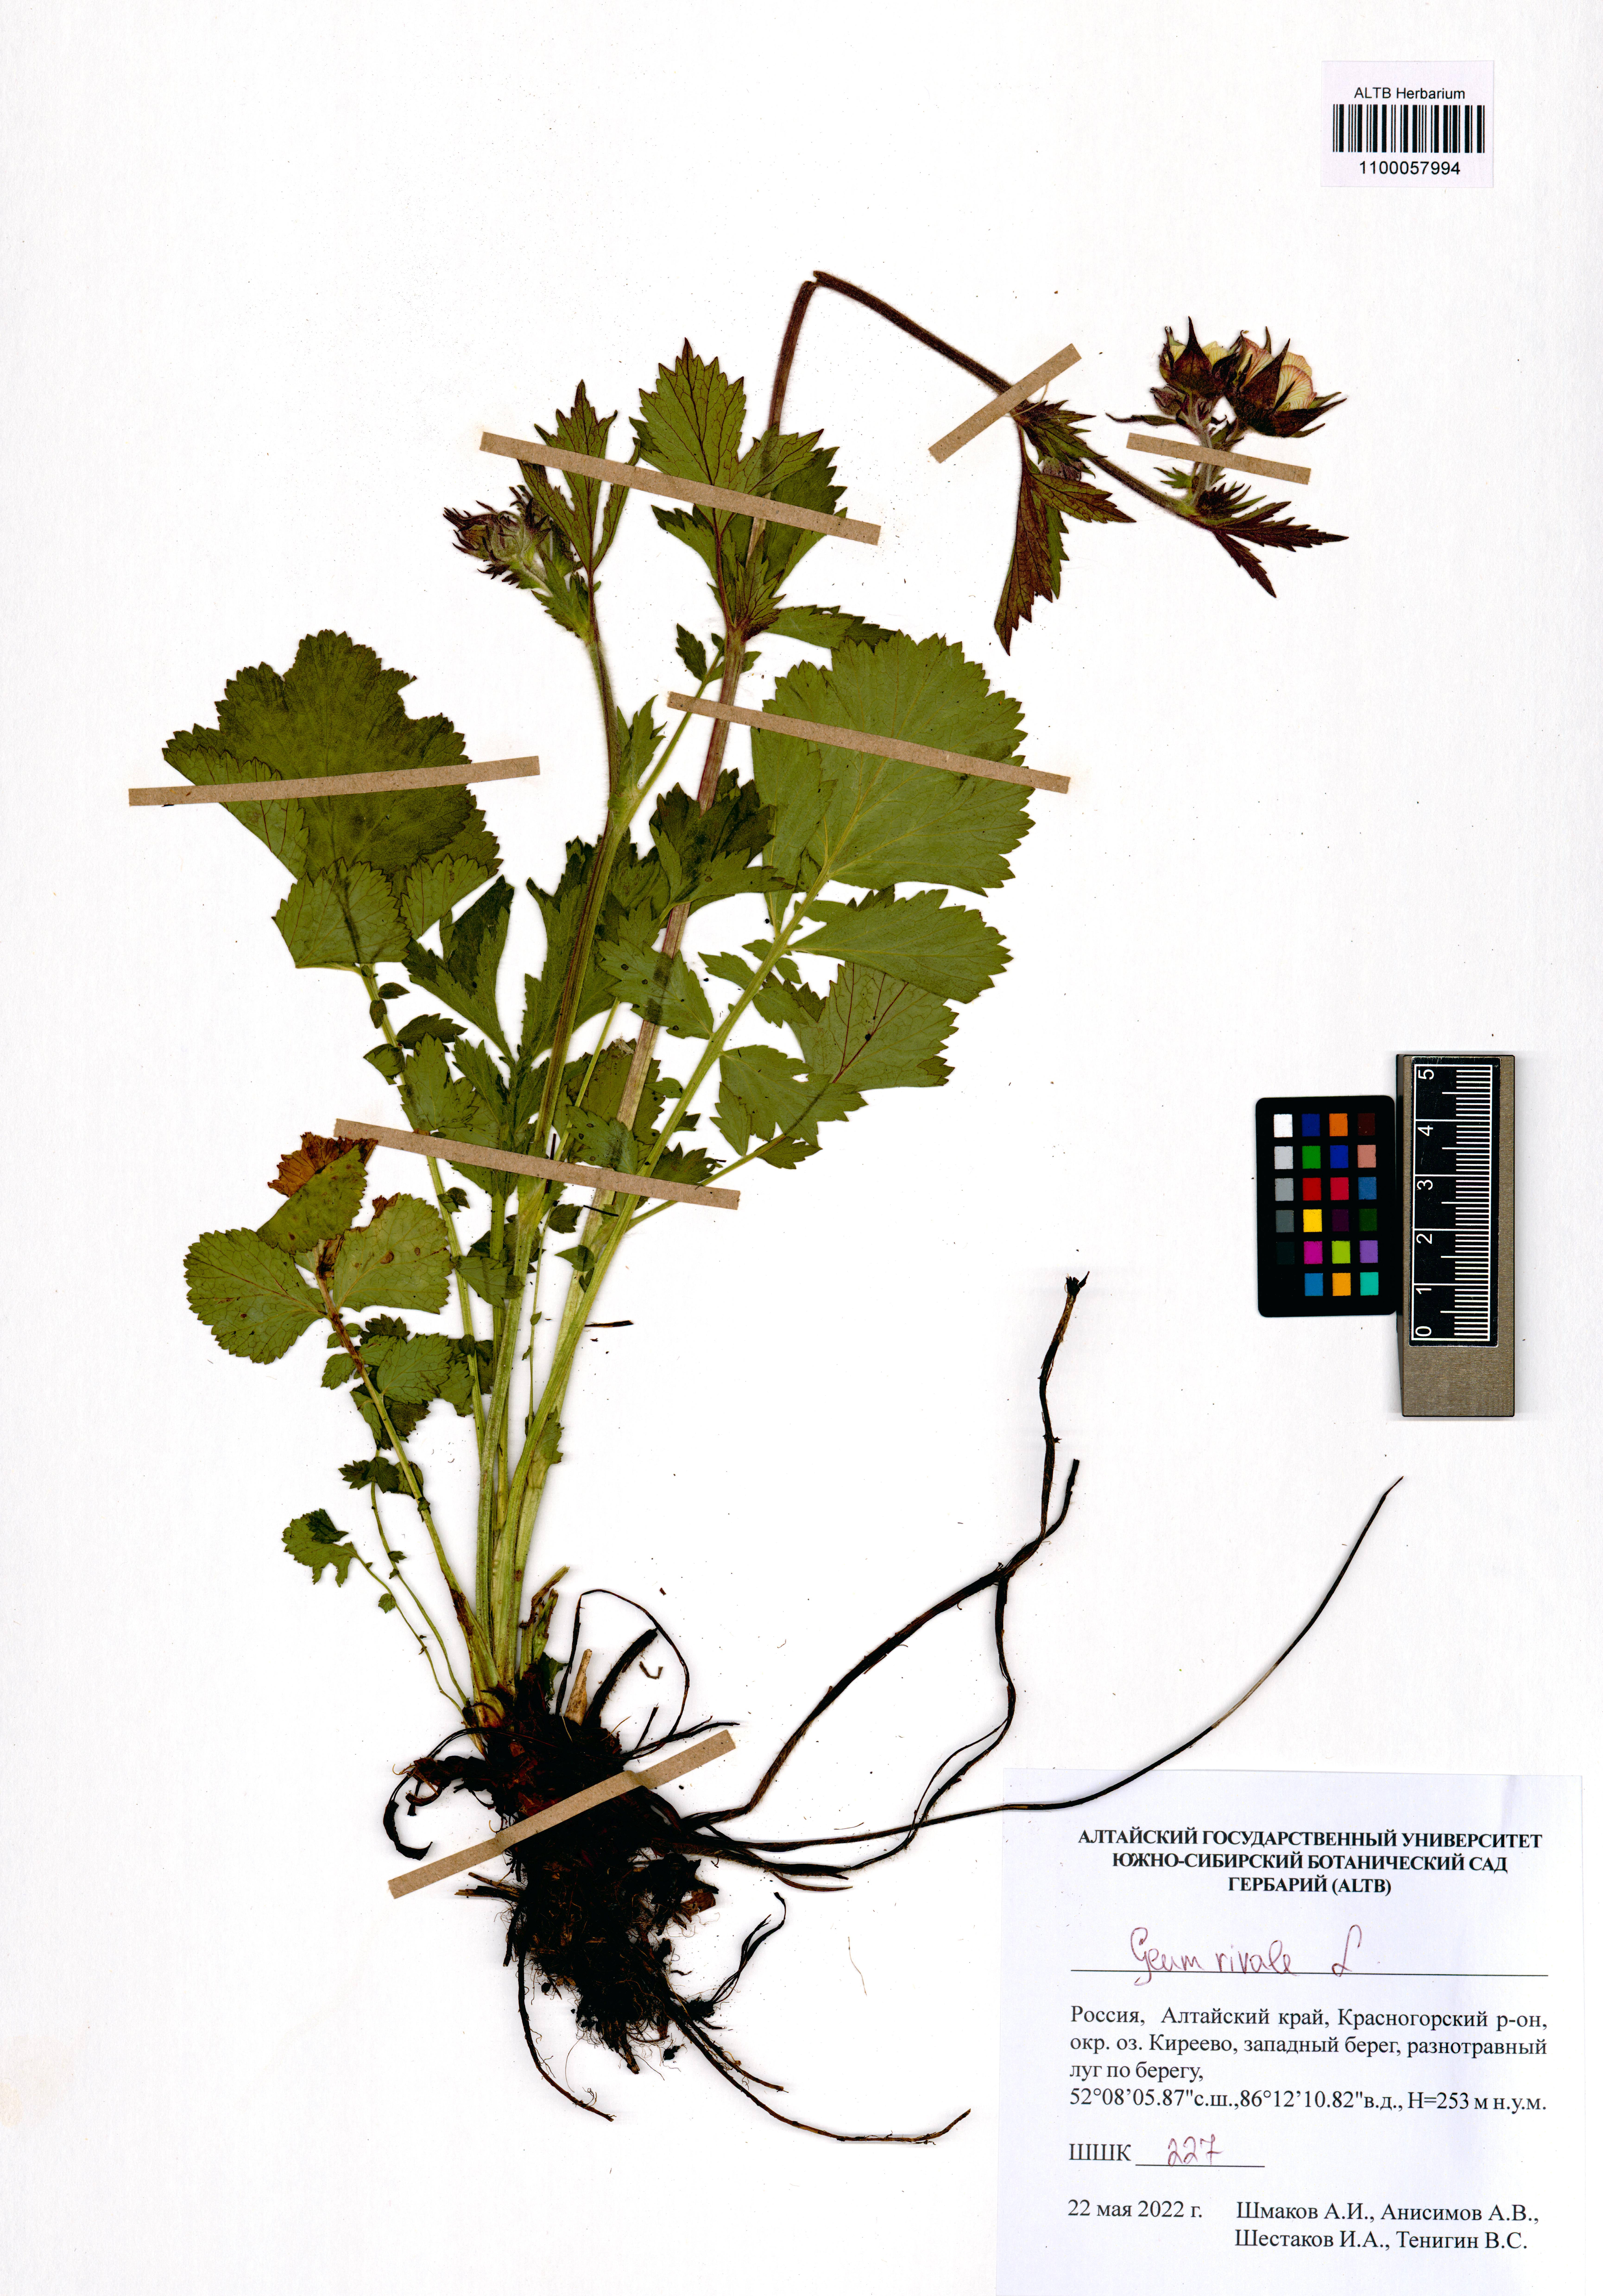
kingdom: Plantae
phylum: Tracheophyta
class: Magnoliopsida
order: Rosales
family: Rosaceae
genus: Geum
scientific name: Geum rivale
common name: Water avens
